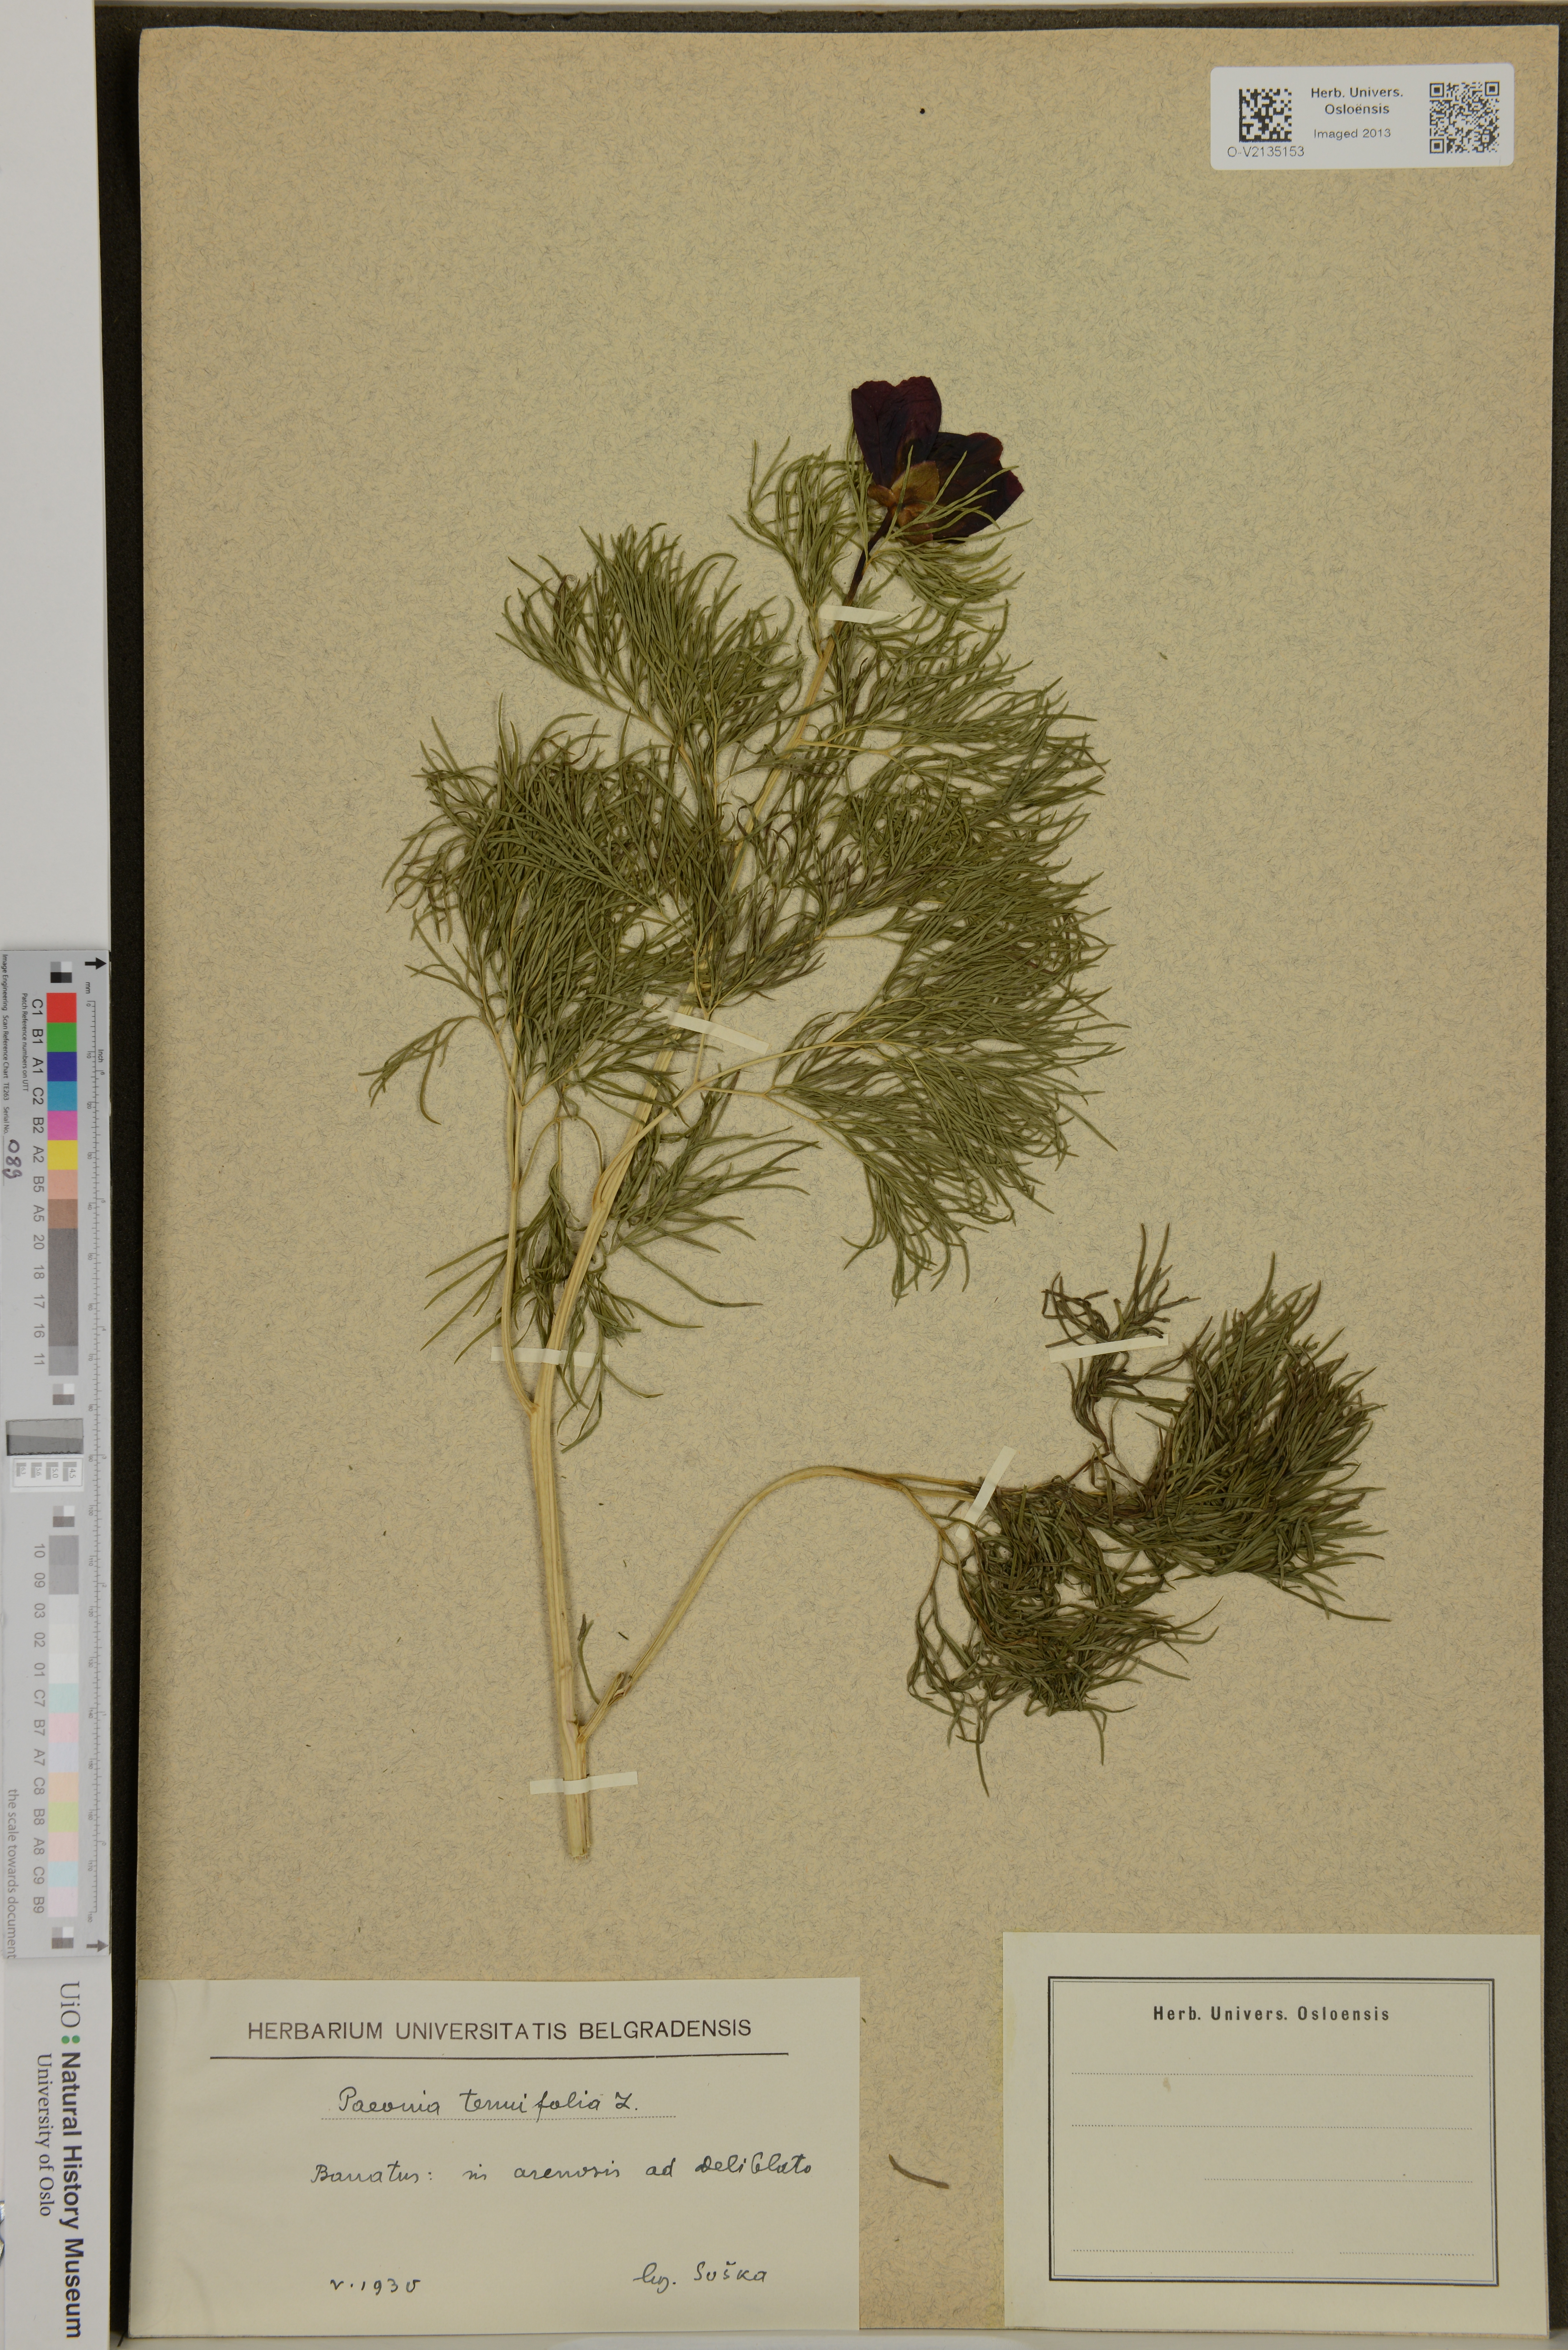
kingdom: Plantae
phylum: Tracheophyta
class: Magnoliopsida
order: Saxifragales
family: Paeoniaceae
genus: Paeonia
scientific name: Paeonia tenuifolia
